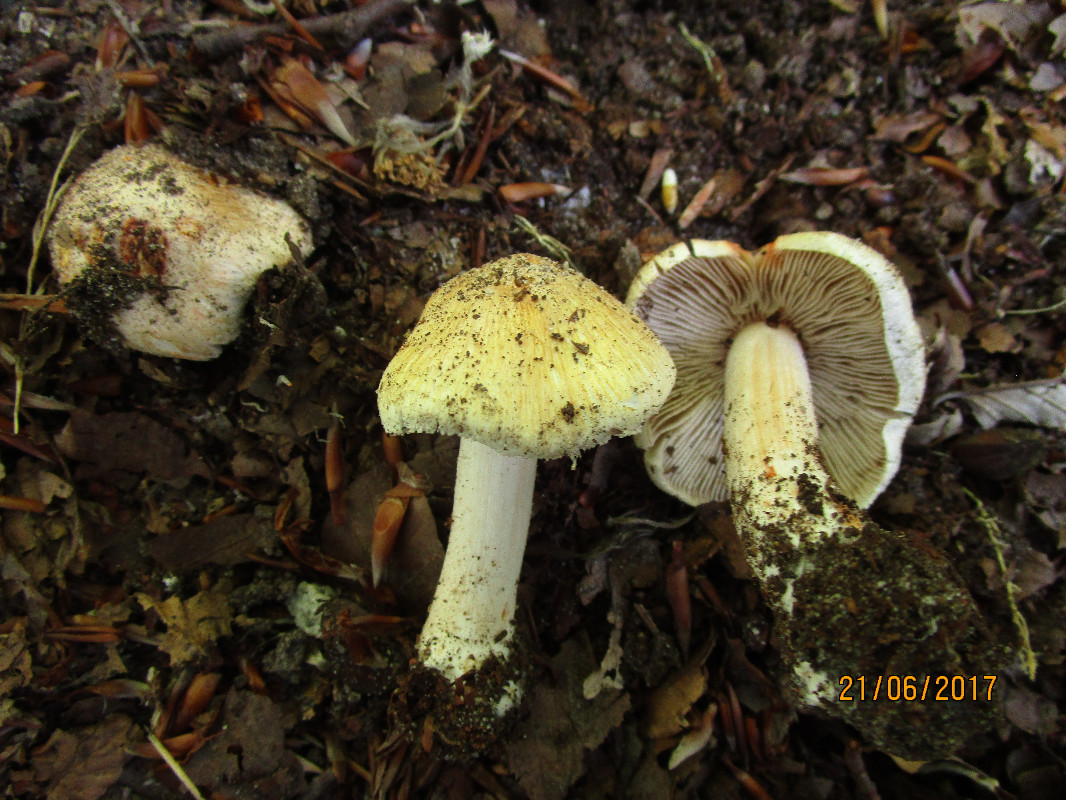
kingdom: Fungi
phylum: Basidiomycota
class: Agaricomycetes
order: Agaricales
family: Inocybaceae
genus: Inosperma
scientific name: Inosperma erubescens
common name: giftig trævlhat
